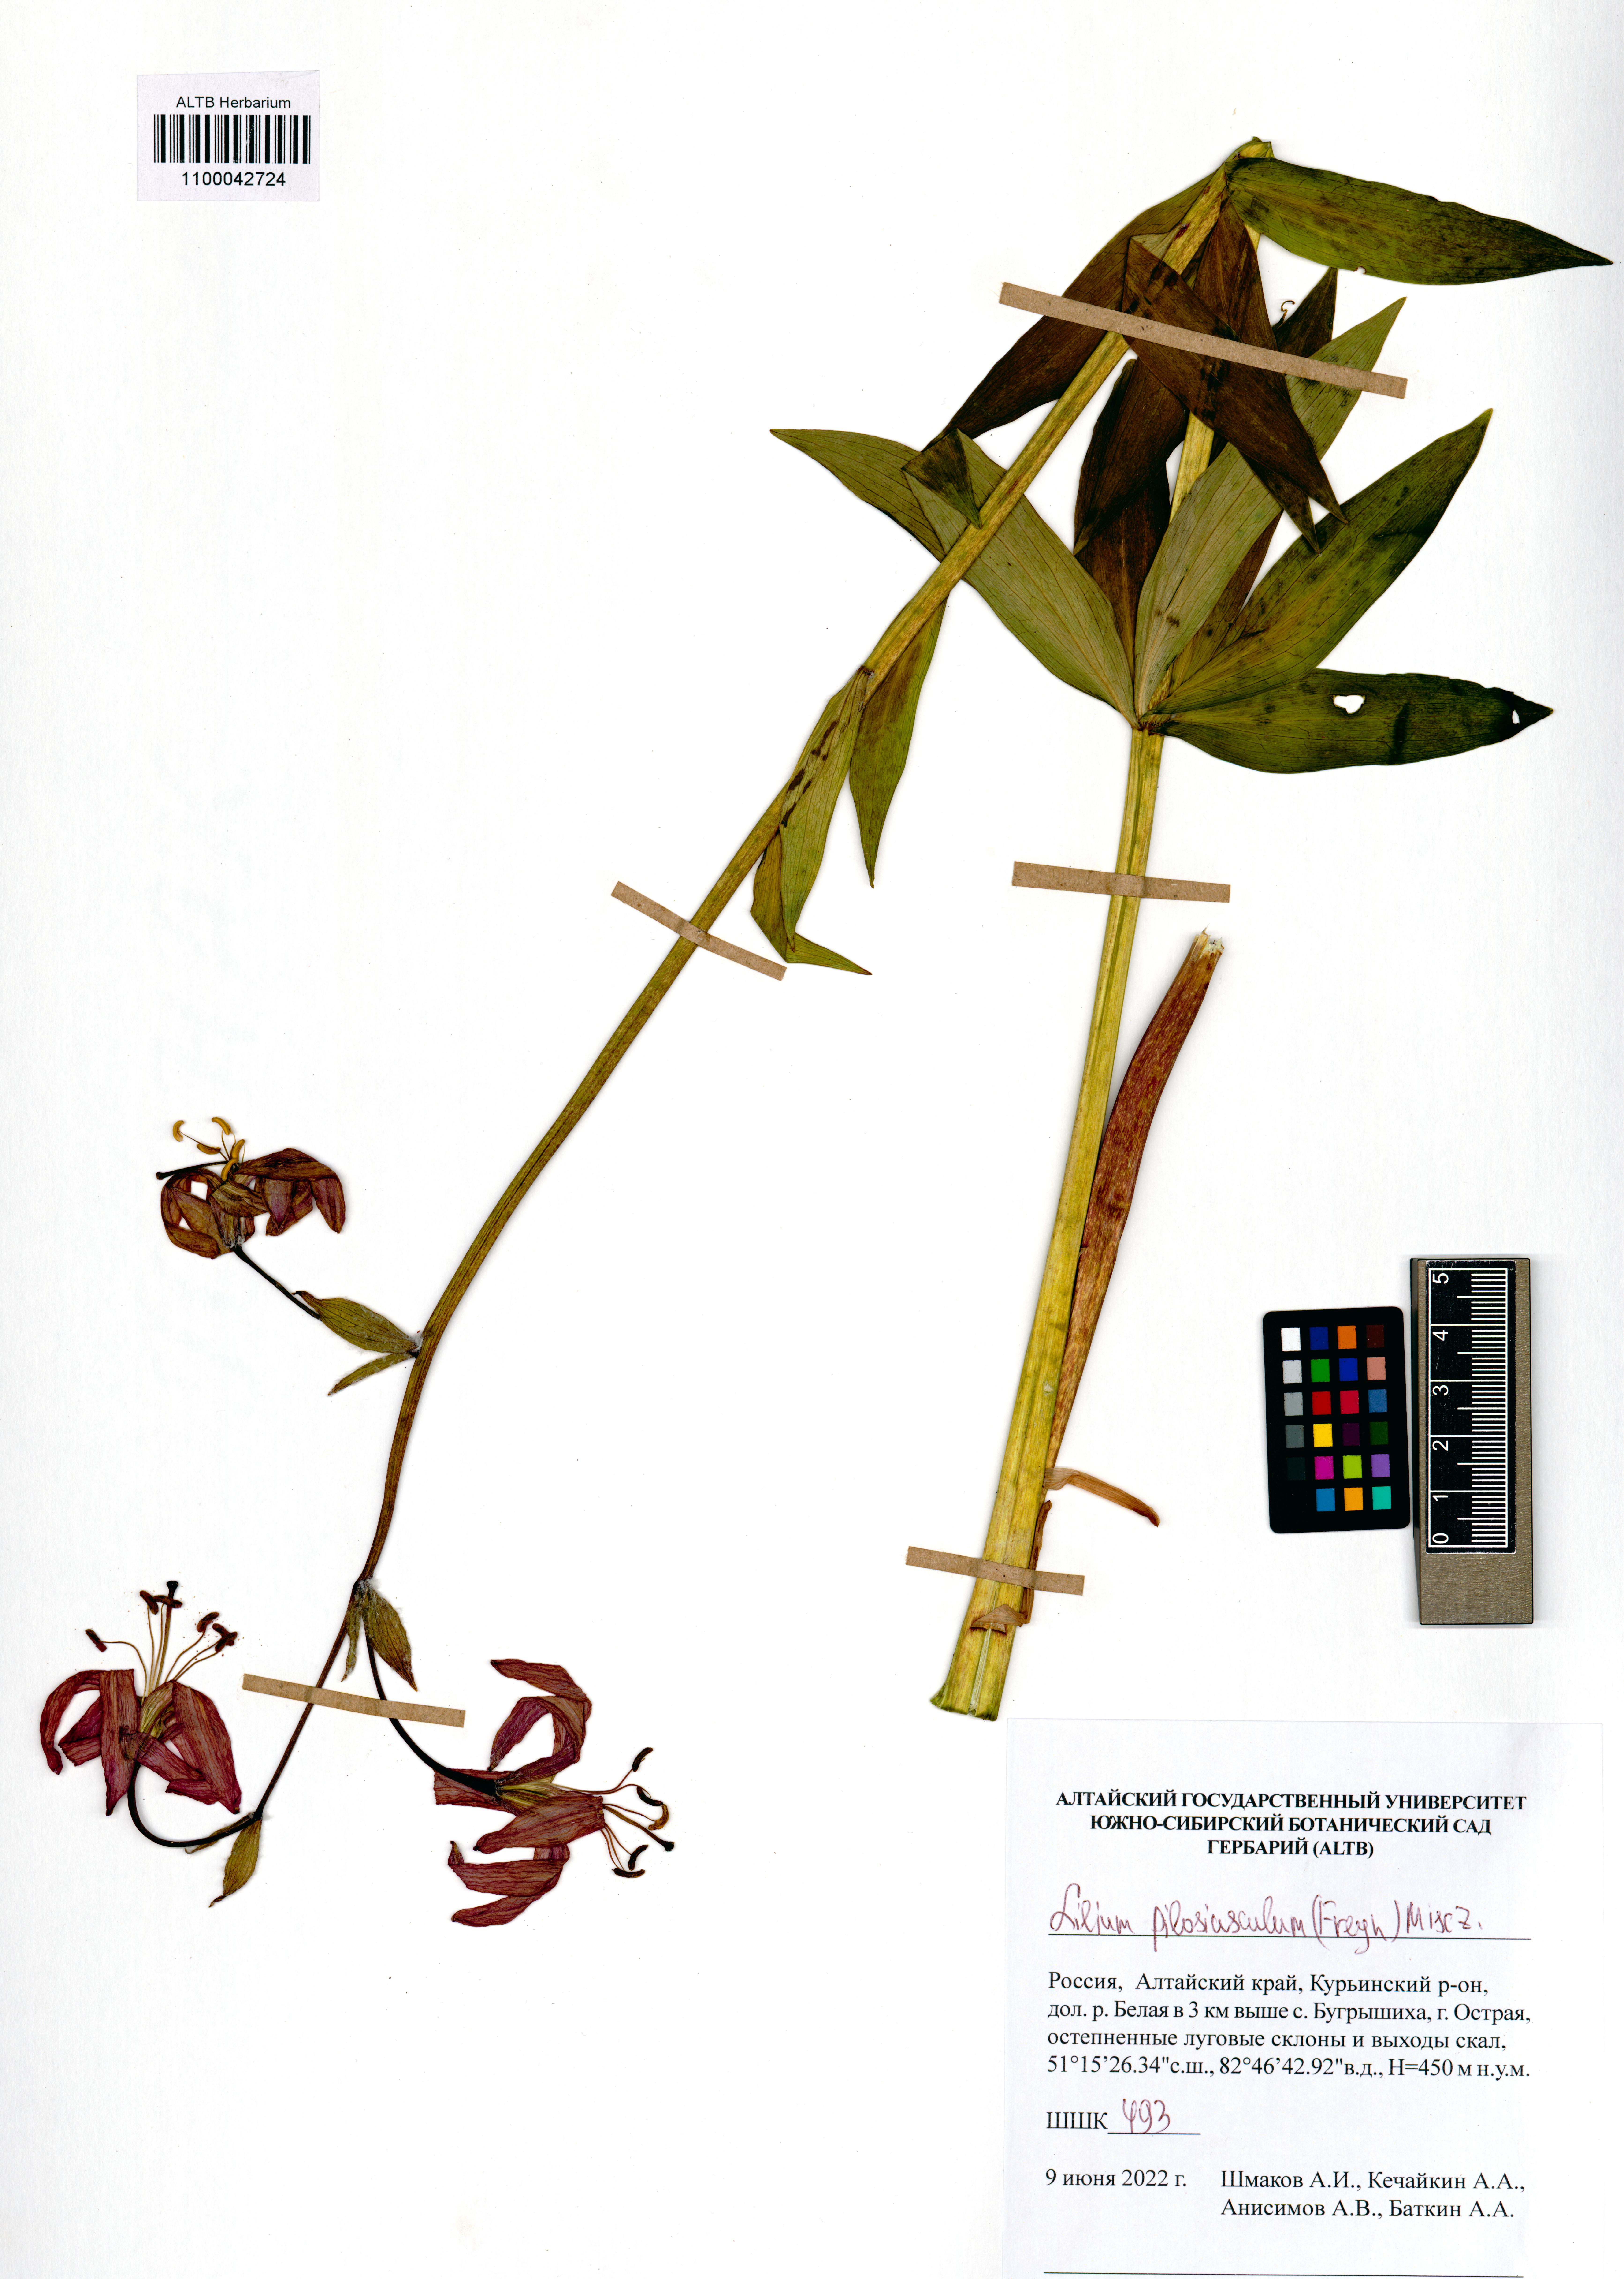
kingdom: Plantae
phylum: Tracheophyta
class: Liliopsida
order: Liliales
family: Liliaceae
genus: Lilium
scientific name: Lilium martagon
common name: Martagon lily
